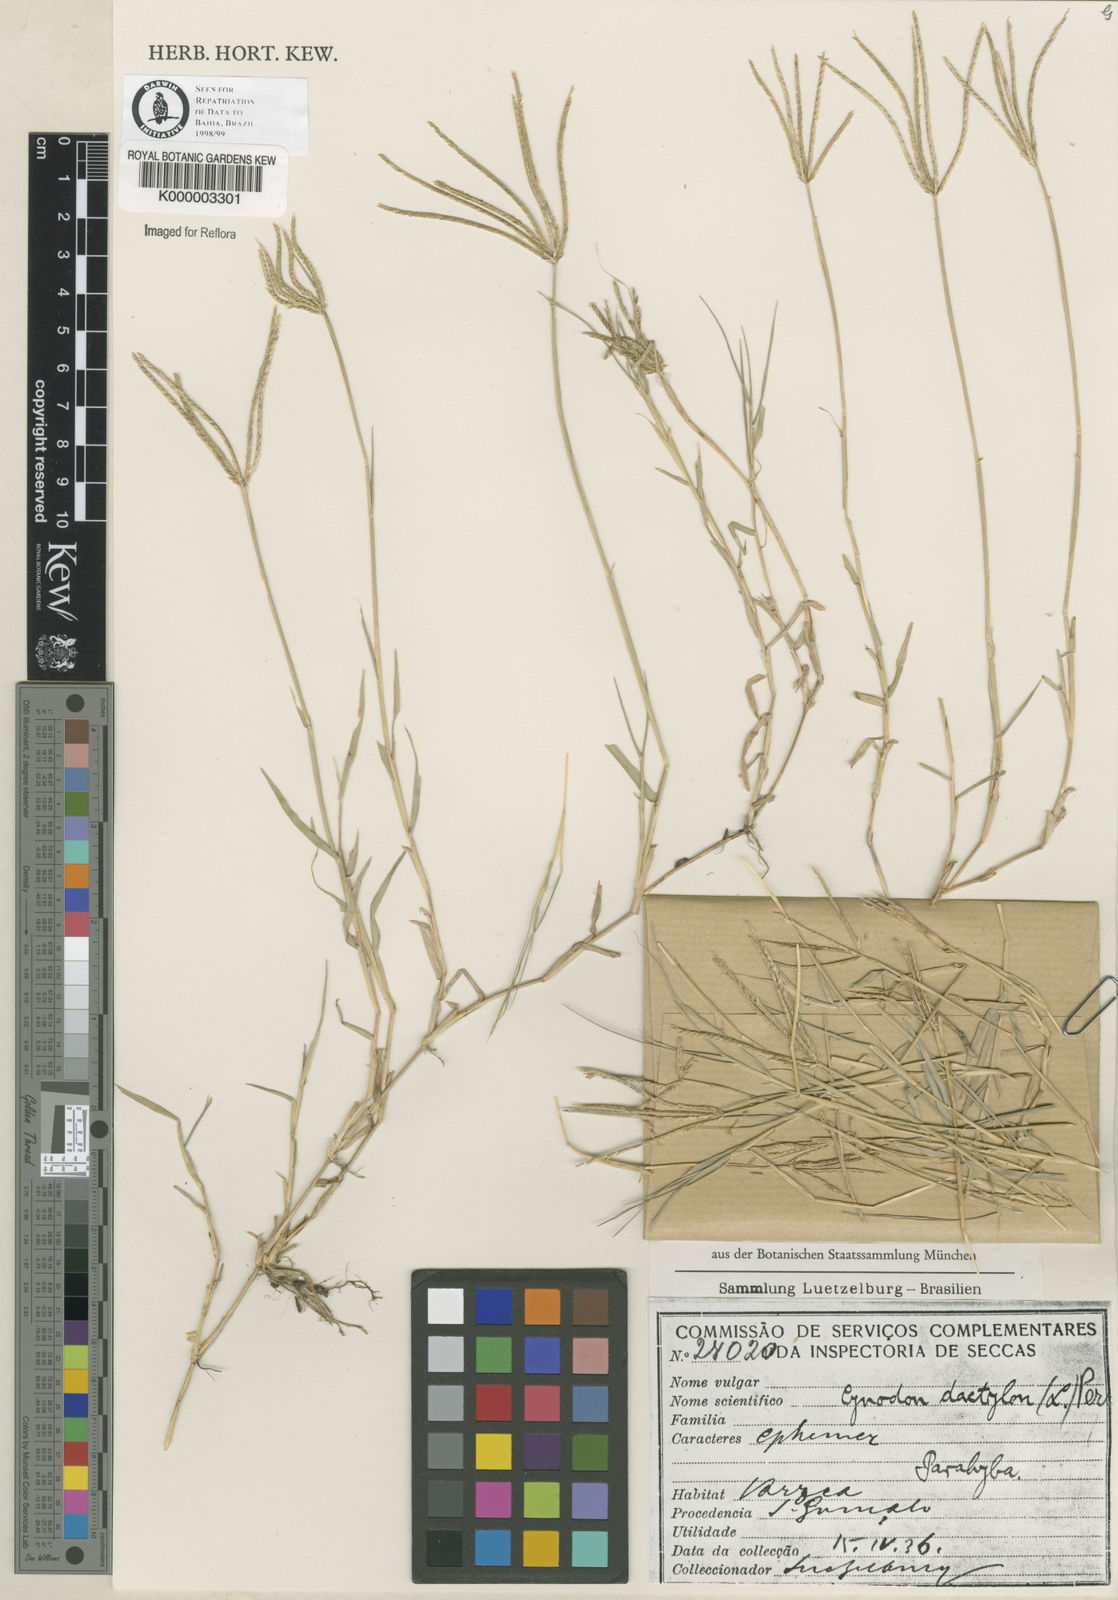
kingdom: Plantae
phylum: Tracheophyta
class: Liliopsida
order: Poales
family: Poaceae
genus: Cynodon
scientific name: Cynodon dactylon
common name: Bermuda grass
